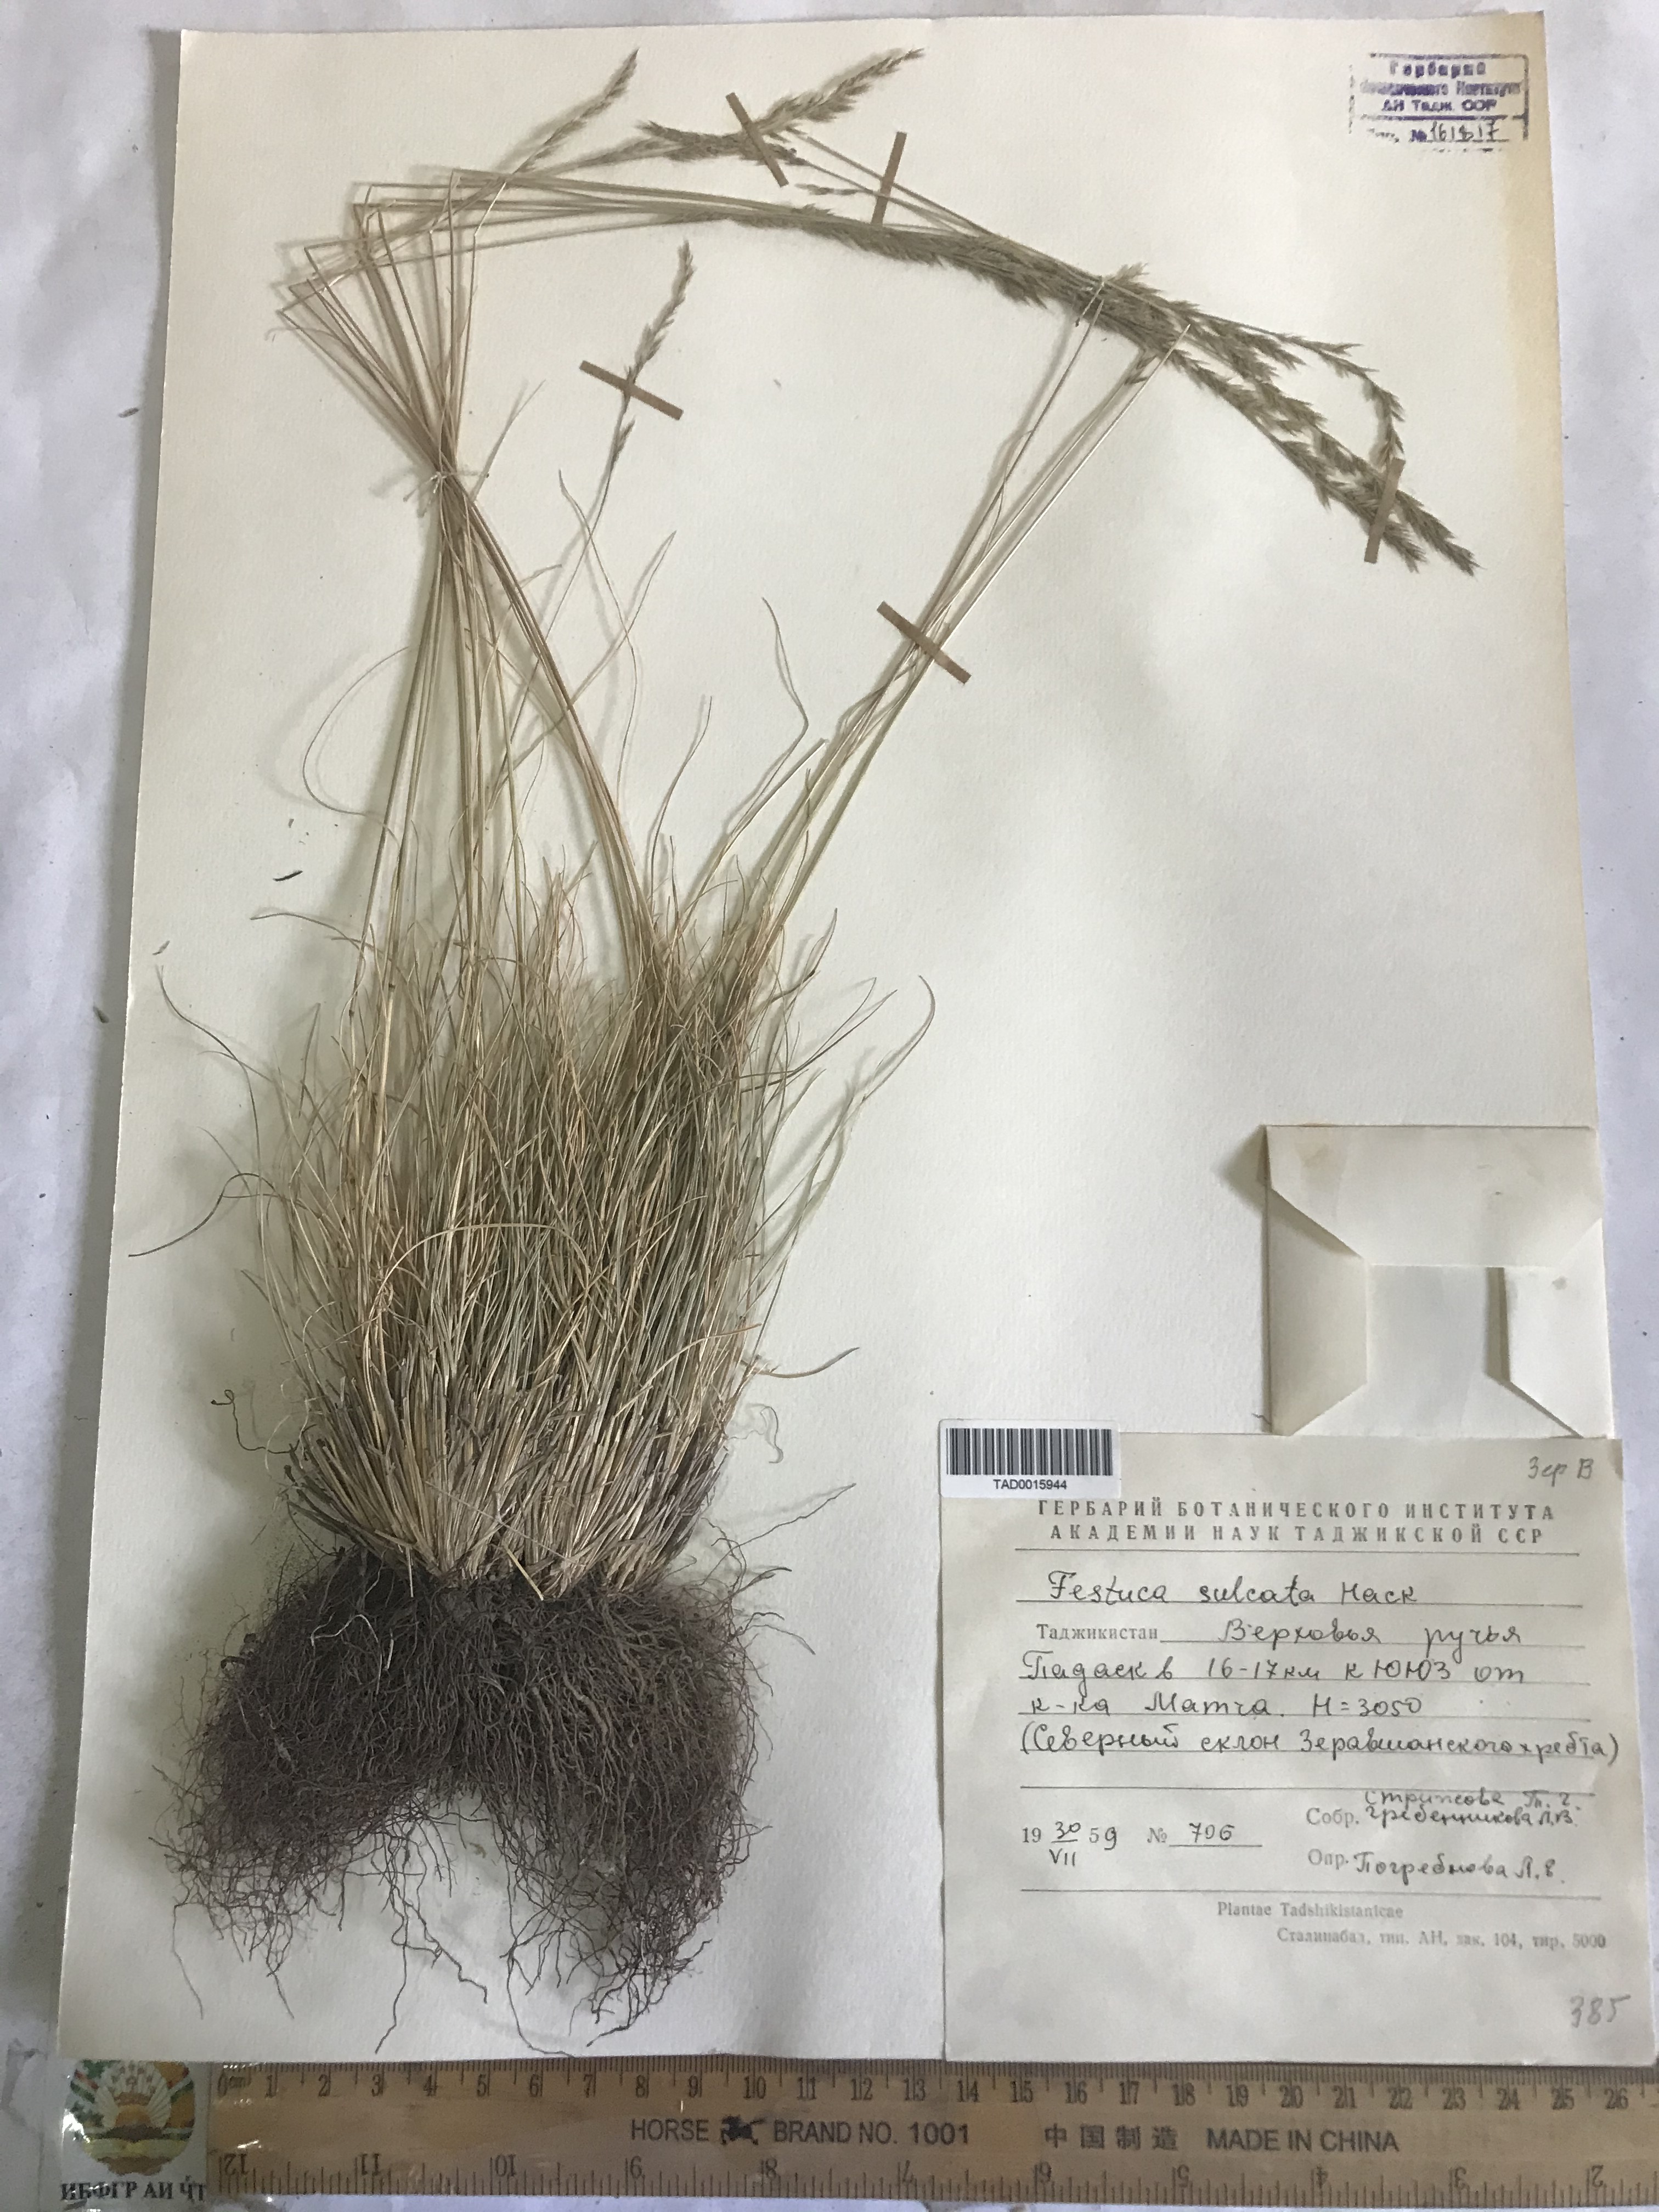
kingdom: Plantae
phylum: Tracheophyta
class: Liliopsida
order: Poales
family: Poaceae
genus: Festuca
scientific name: Festuca sulcata
